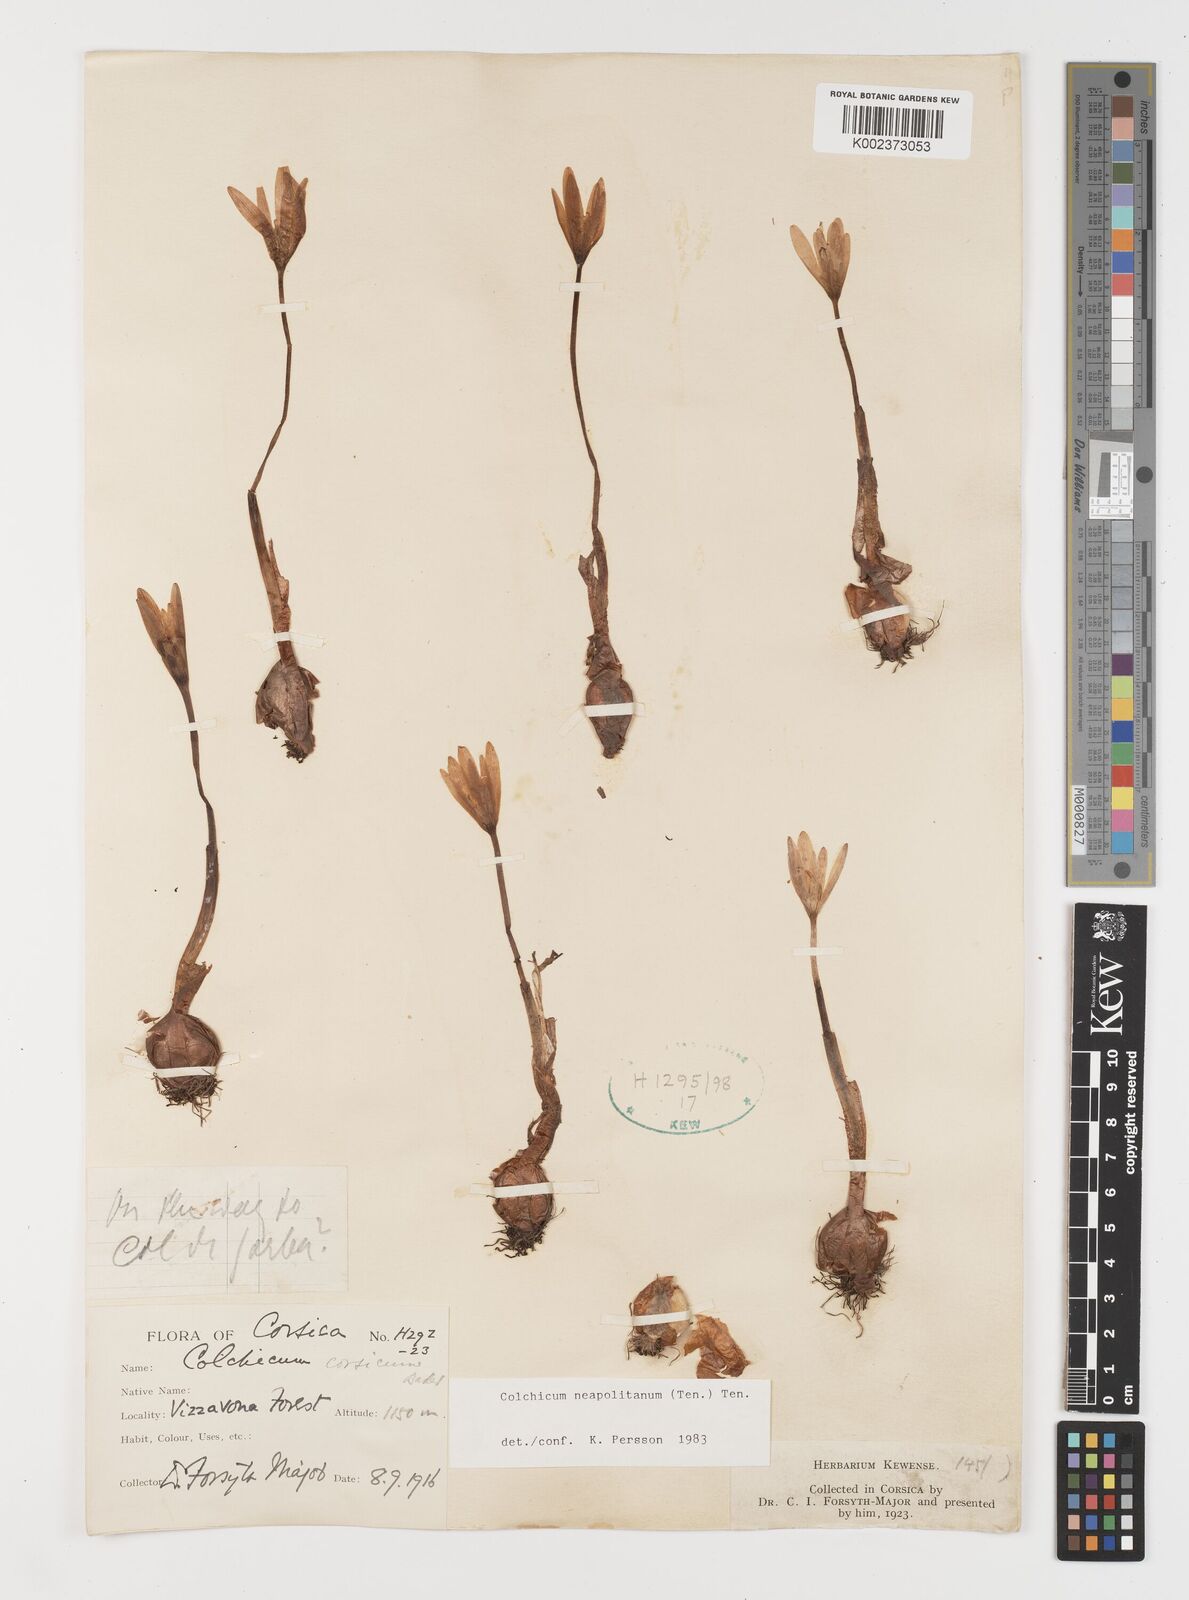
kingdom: Plantae
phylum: Tracheophyta
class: Liliopsida
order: Liliales
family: Colchicaceae
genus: Colchicum
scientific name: Colchicum neapolitanum
